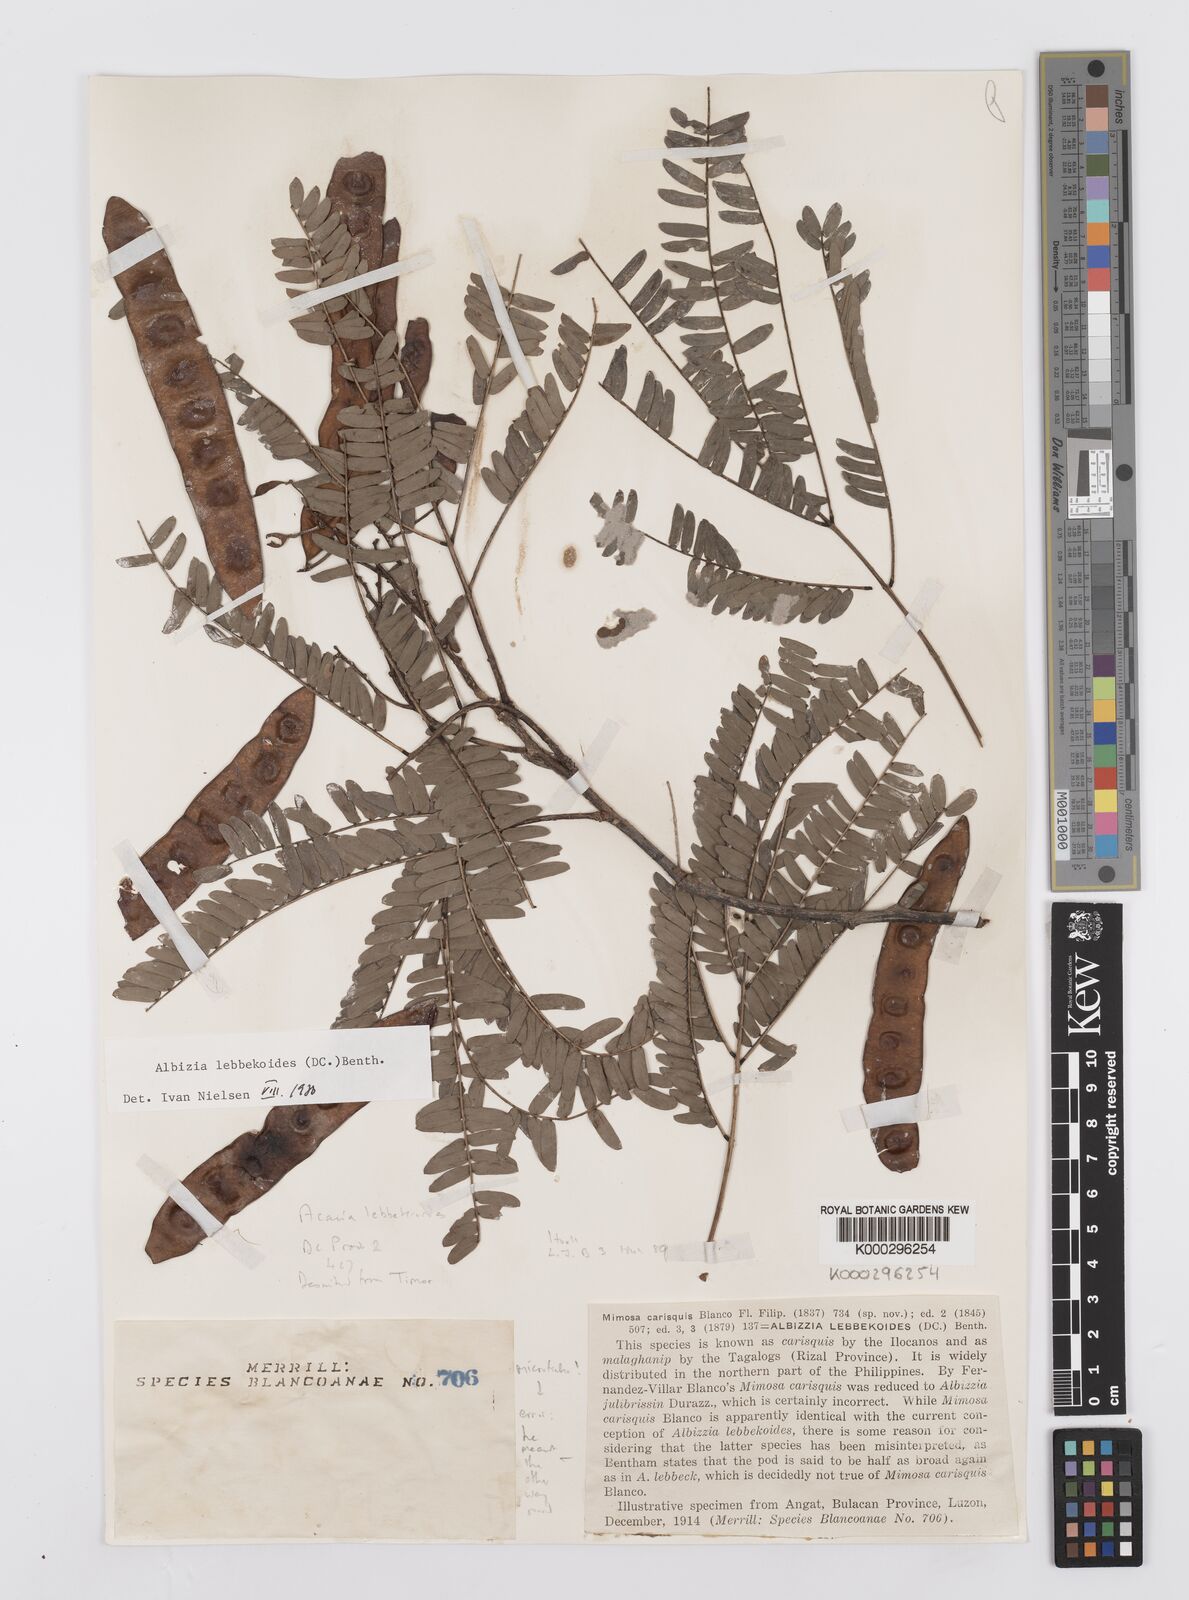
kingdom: Plantae
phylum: Tracheophyta
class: Magnoliopsida
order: Fabales
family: Fabaceae
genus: Albizia
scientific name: Albizia lebbekoides
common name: Indian albizia
